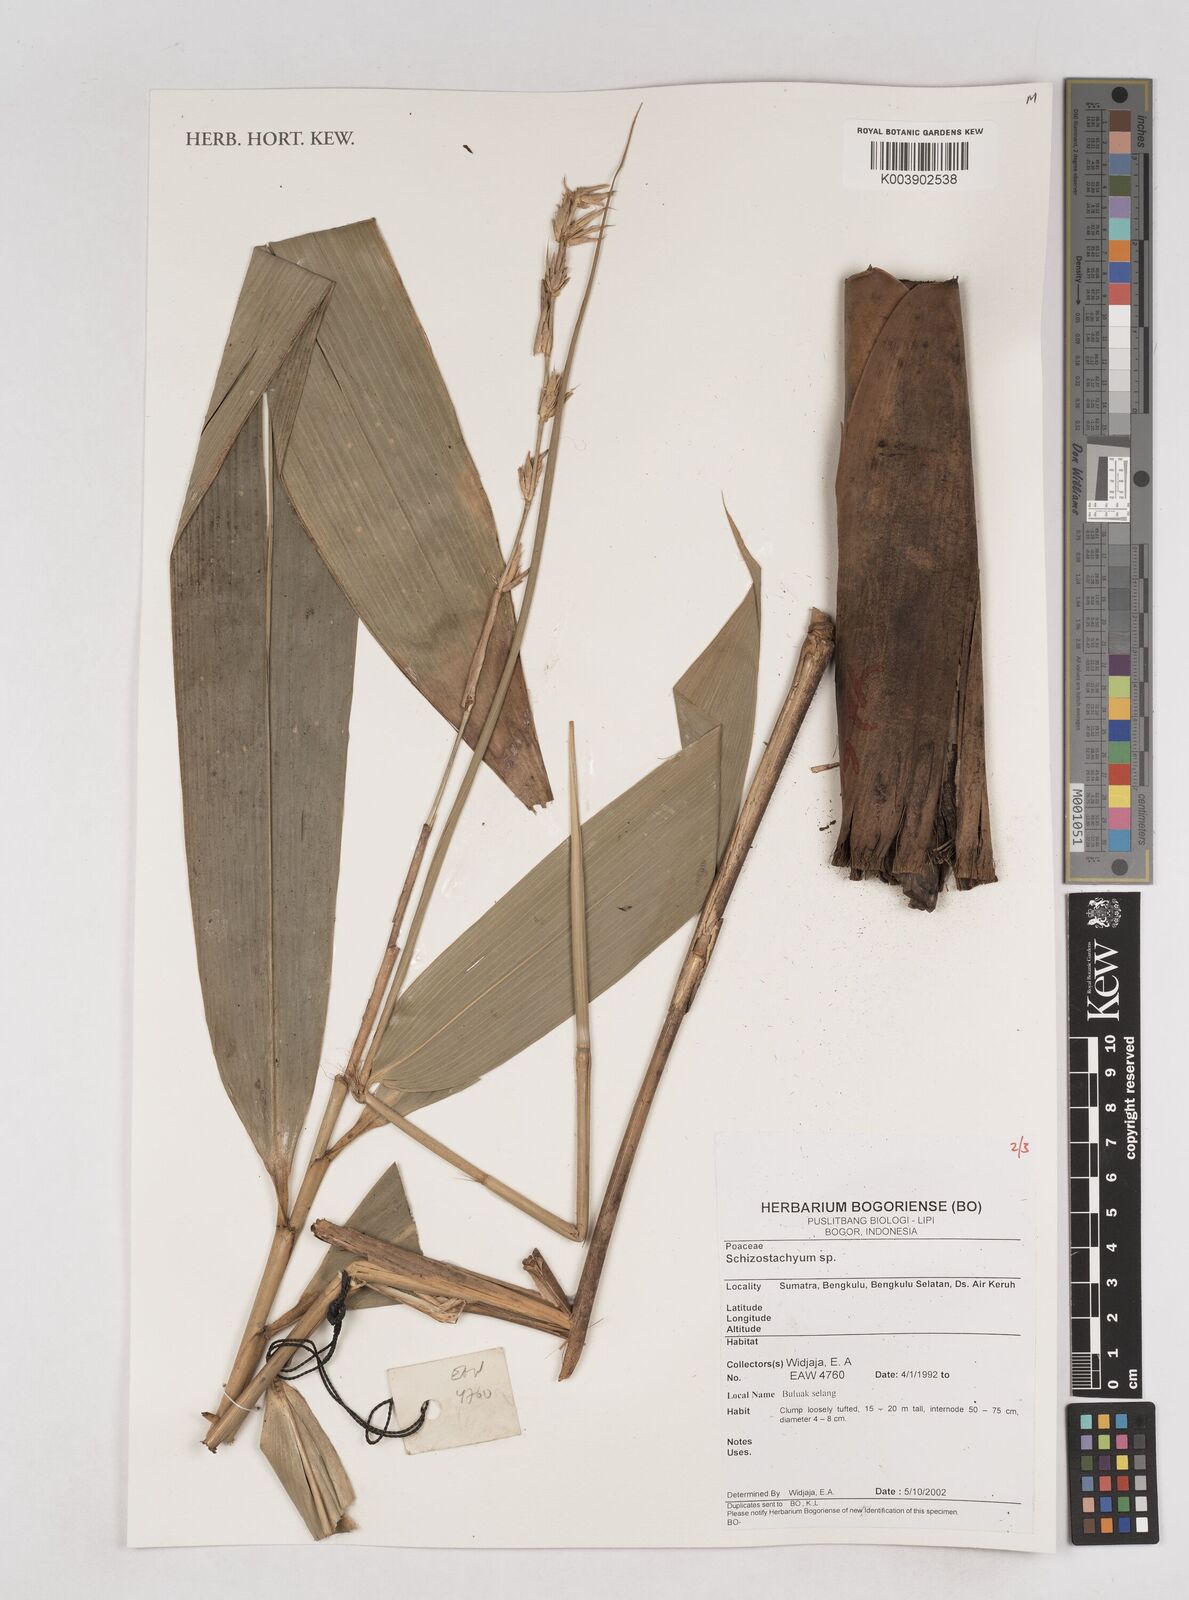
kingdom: Plantae
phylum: Tracheophyta
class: Liliopsida
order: Poales
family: Poaceae
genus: Schizostachyum
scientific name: Schizostachyum
